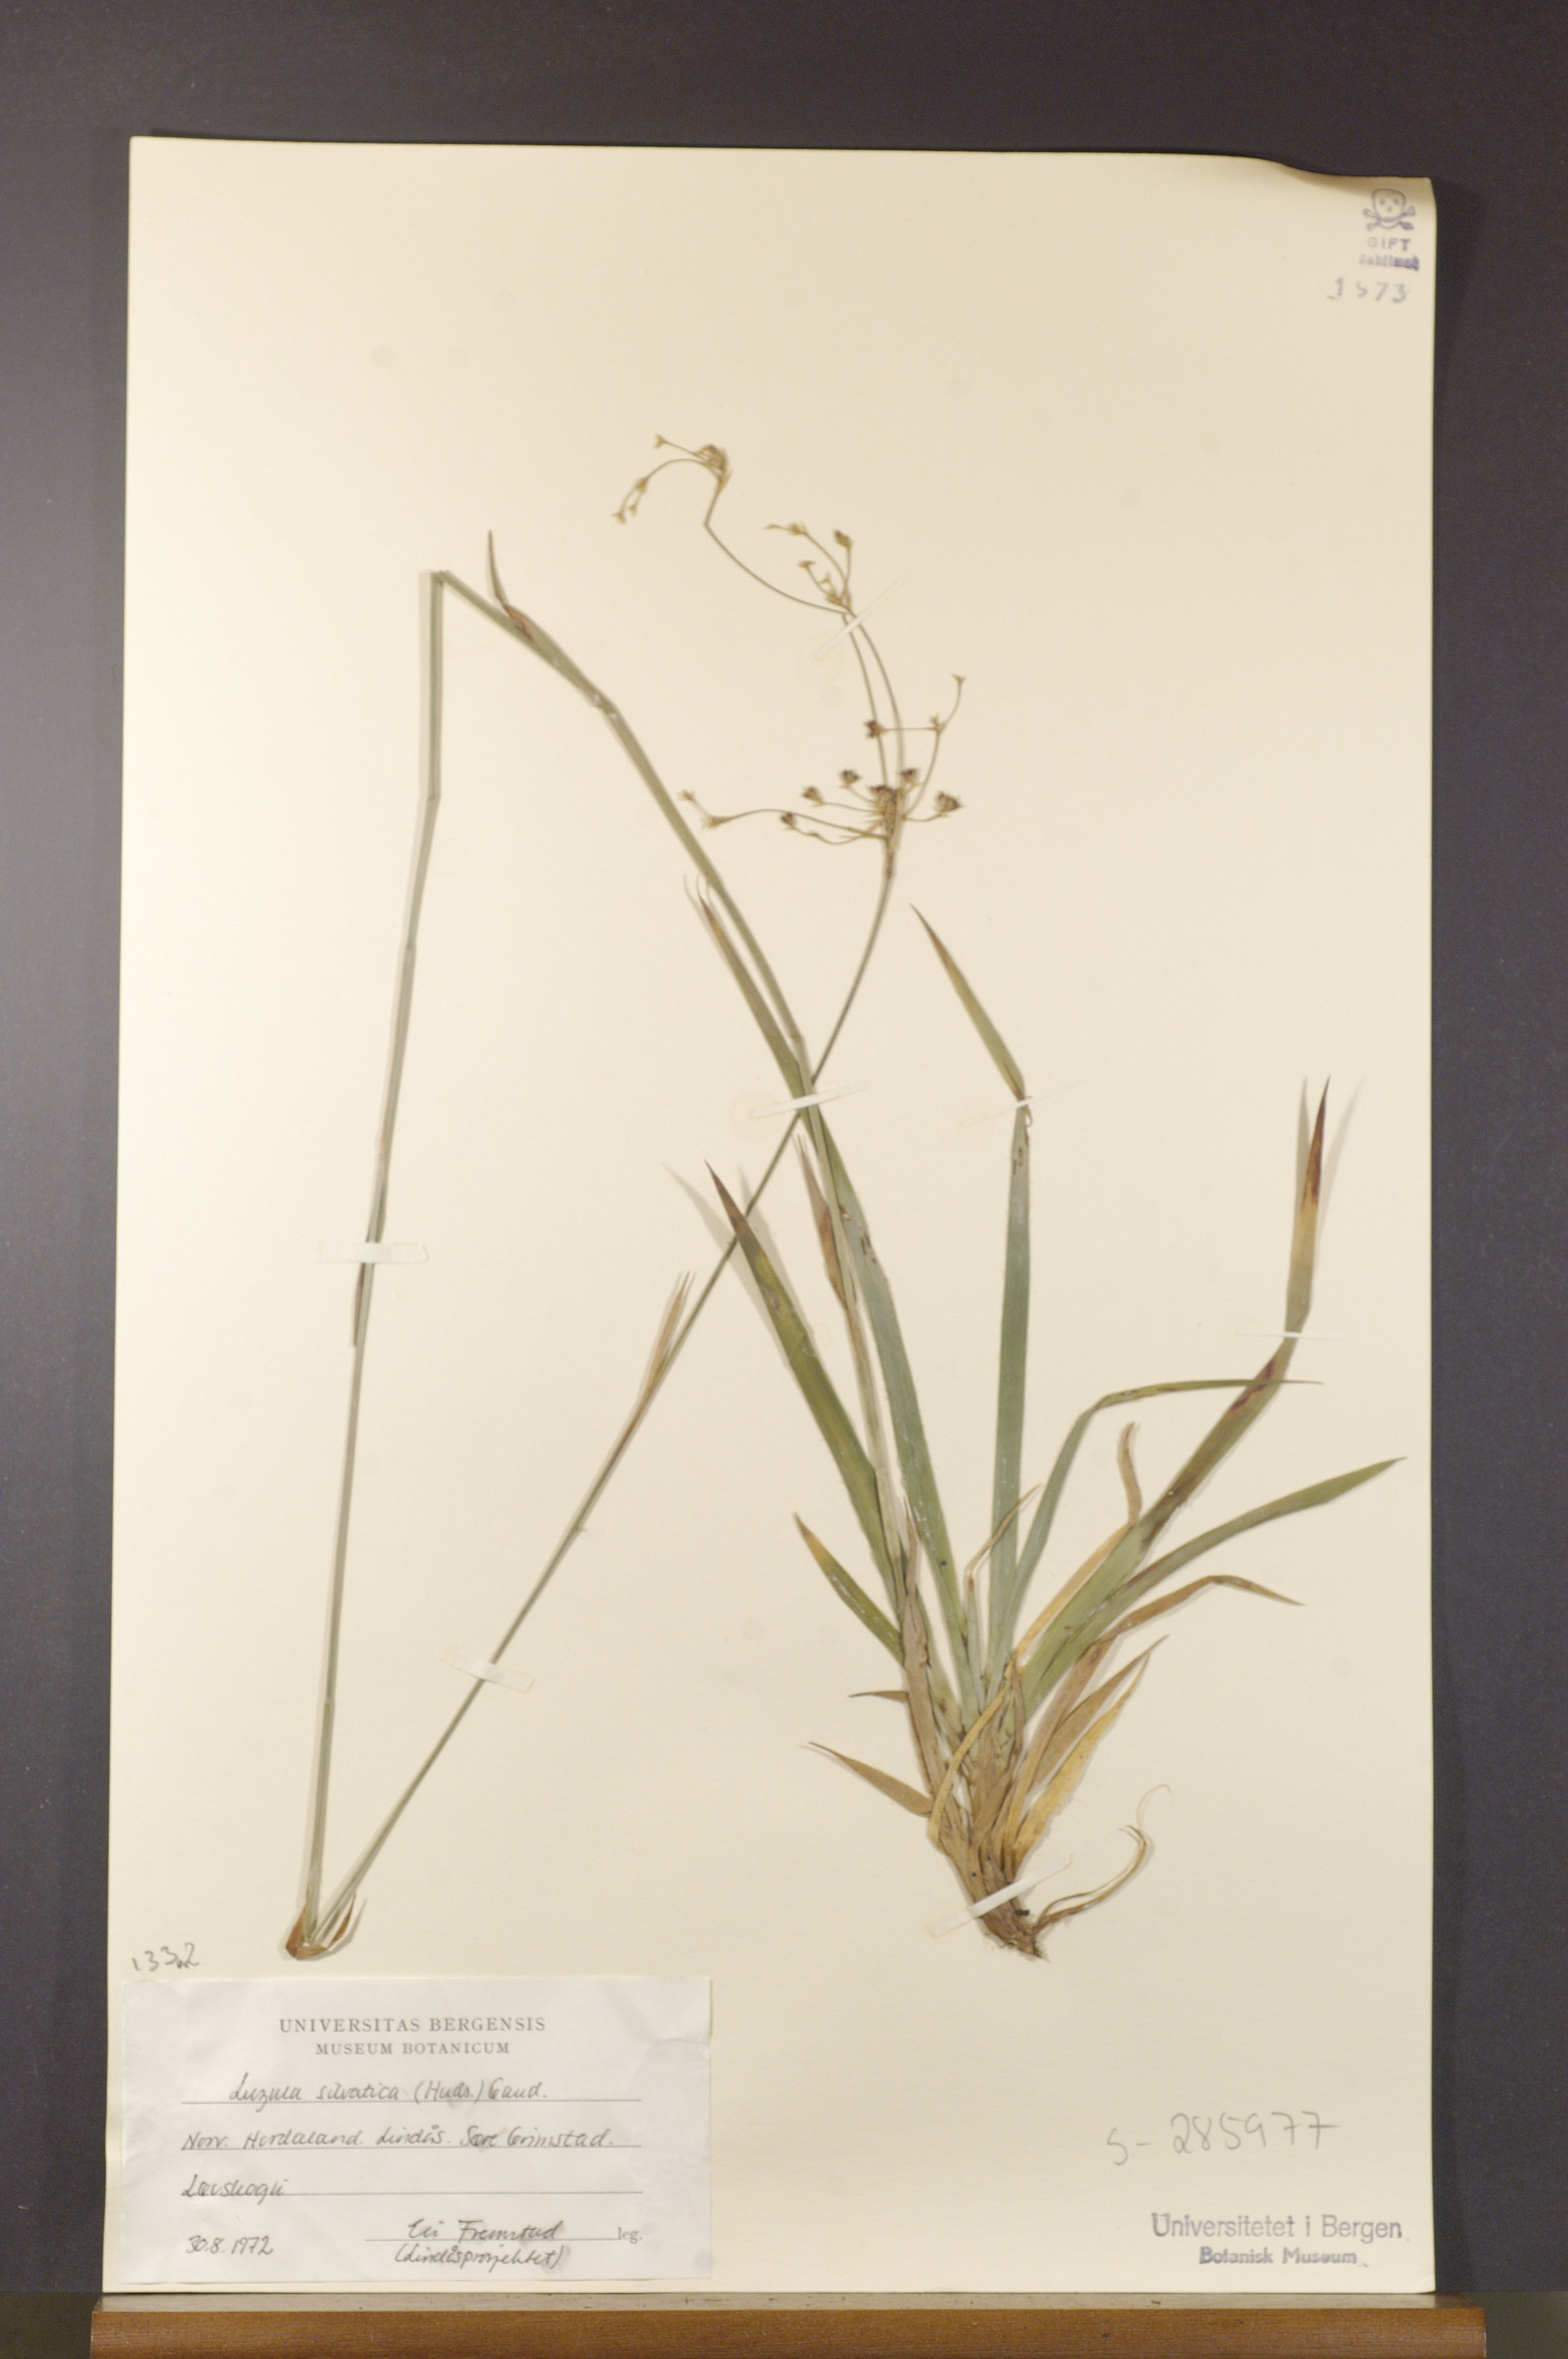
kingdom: Plantae
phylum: Tracheophyta
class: Liliopsida
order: Poales
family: Juncaceae
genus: Luzula
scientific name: Luzula sylvatica
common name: Great wood-rush
